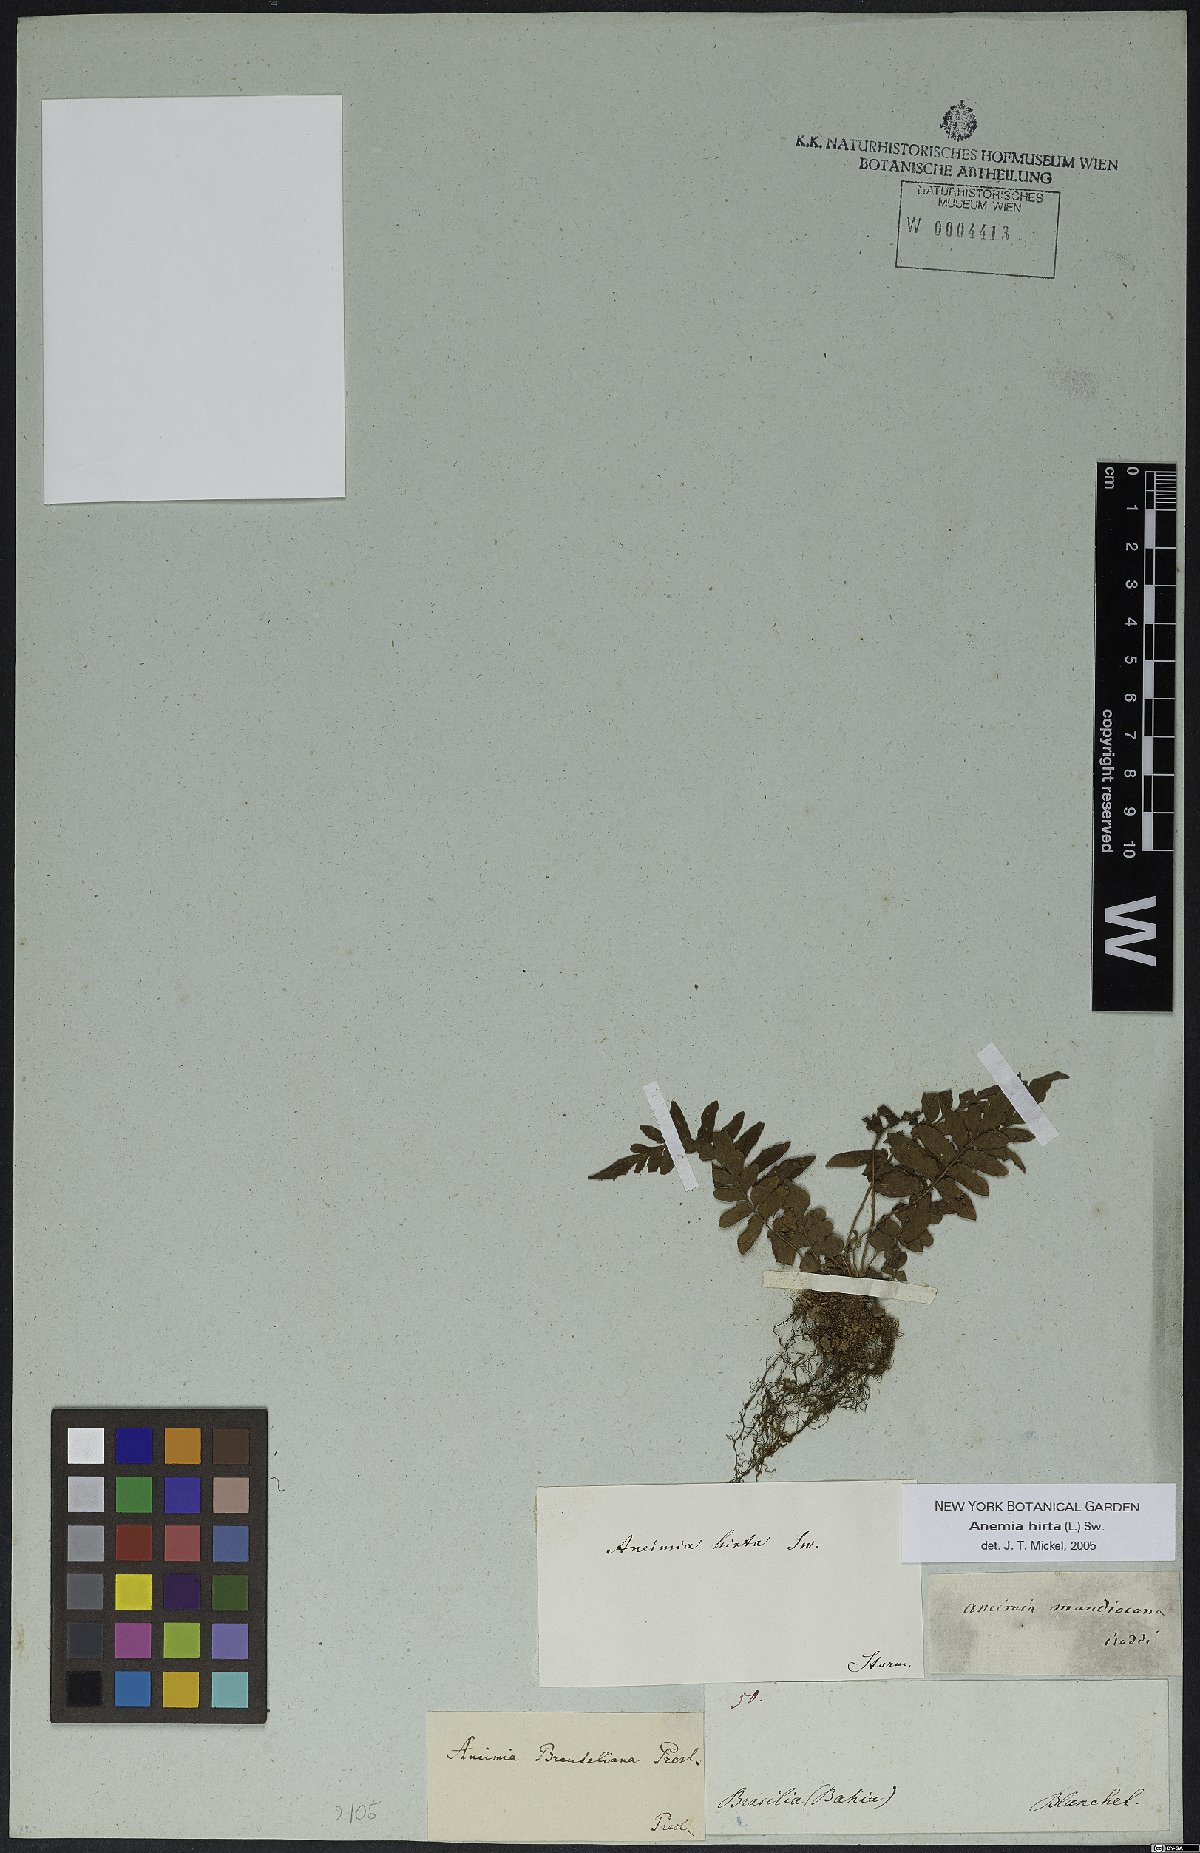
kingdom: Plantae
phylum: Tracheophyta
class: Polypodiopsida
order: Schizaeales
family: Anemiaceae
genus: Anemia
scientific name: Anemia hirsuta
